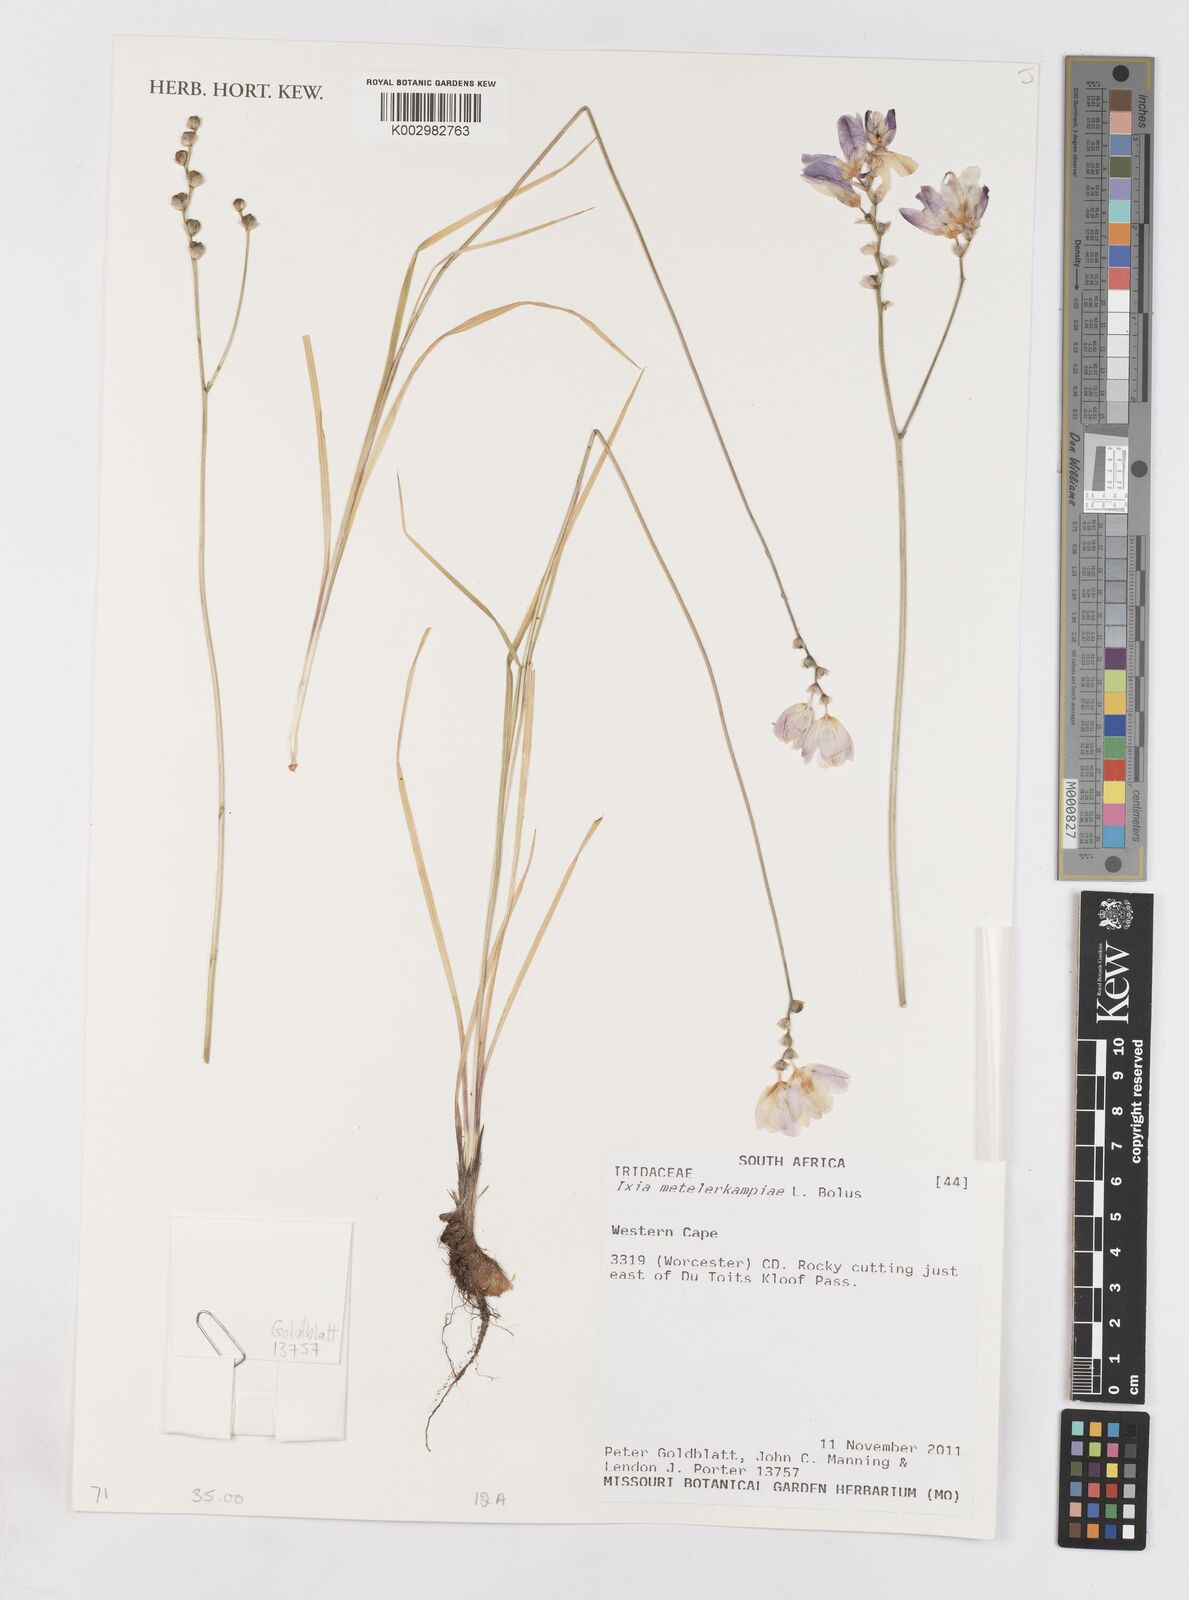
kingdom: Plantae
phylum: Tracheophyta
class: Liliopsida
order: Asparagales
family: Iridaceae
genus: Ixia
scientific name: Ixia metelerkampiae
